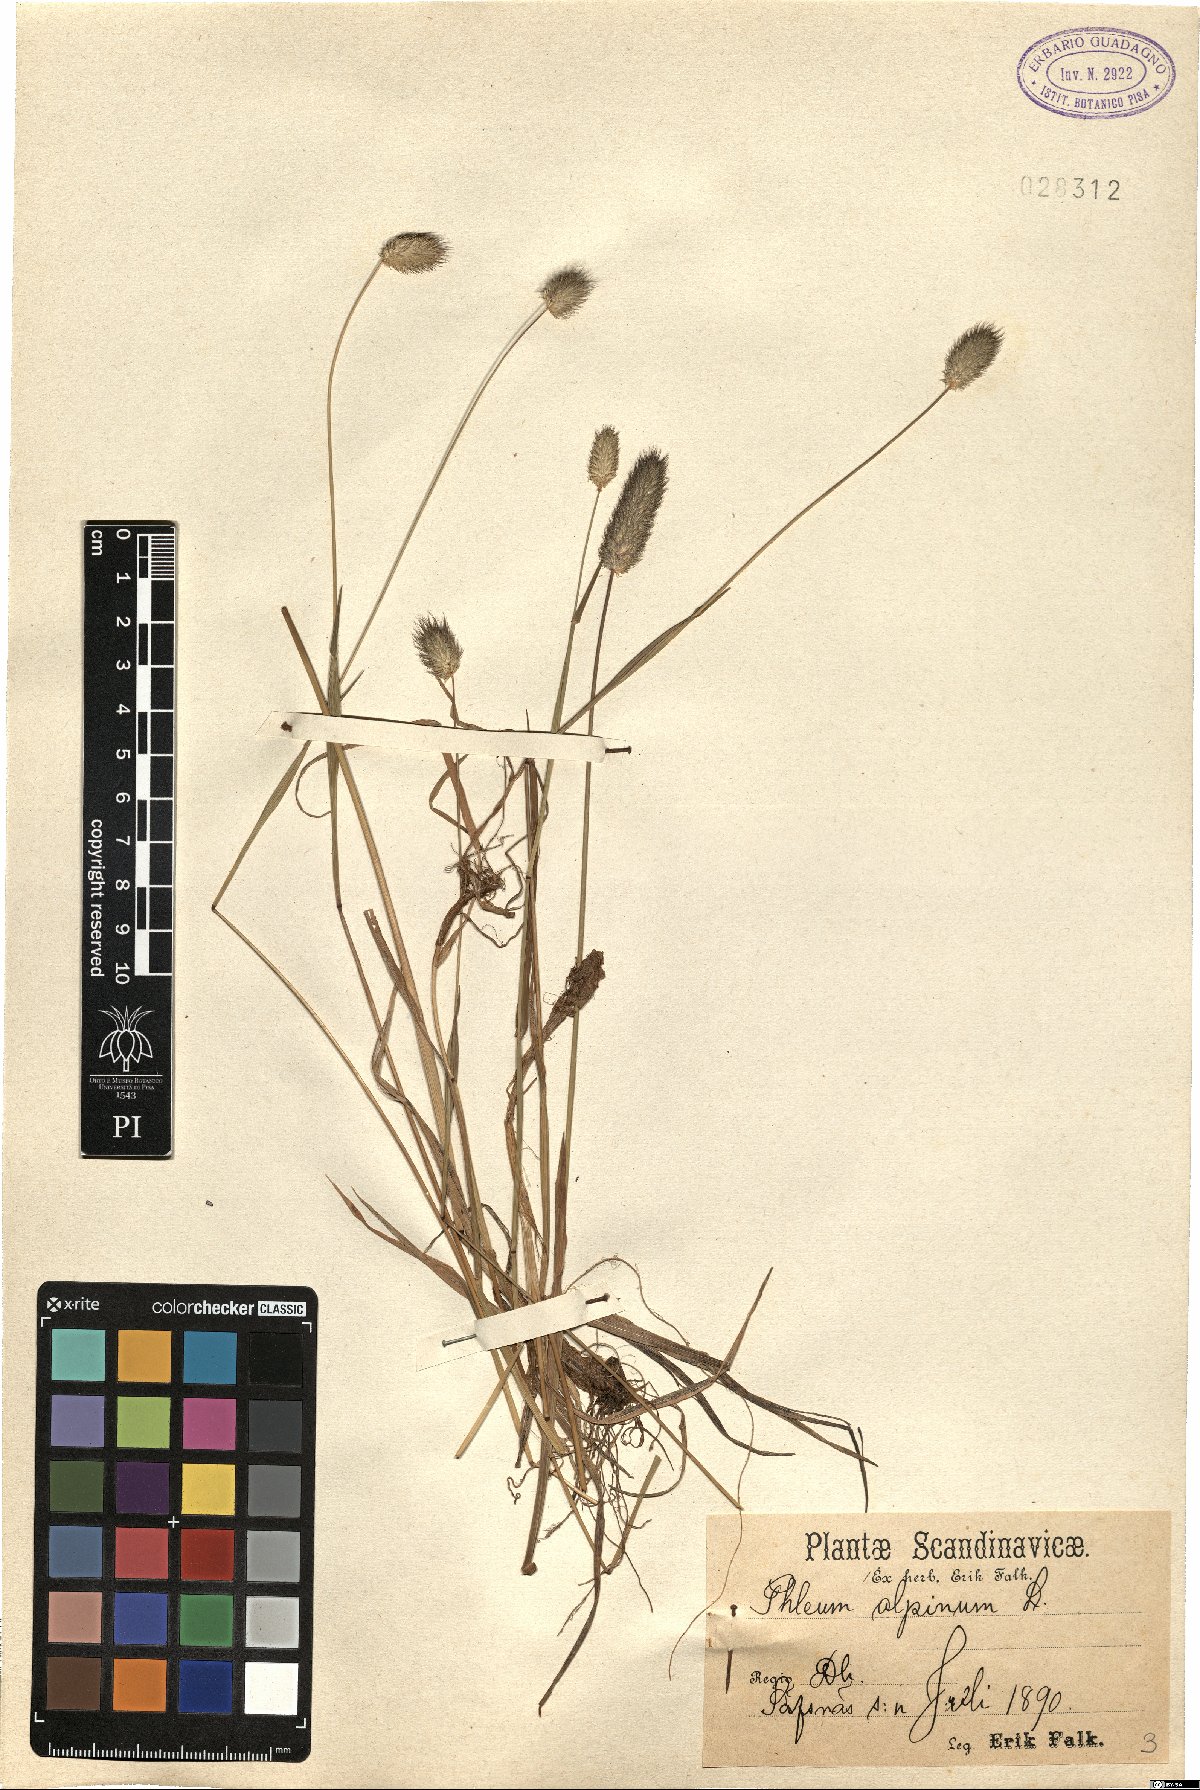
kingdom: Plantae
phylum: Tracheophyta
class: Liliopsida
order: Poales
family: Poaceae
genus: Phleum
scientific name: Phleum alpinum
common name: Alpine cat's-tail
